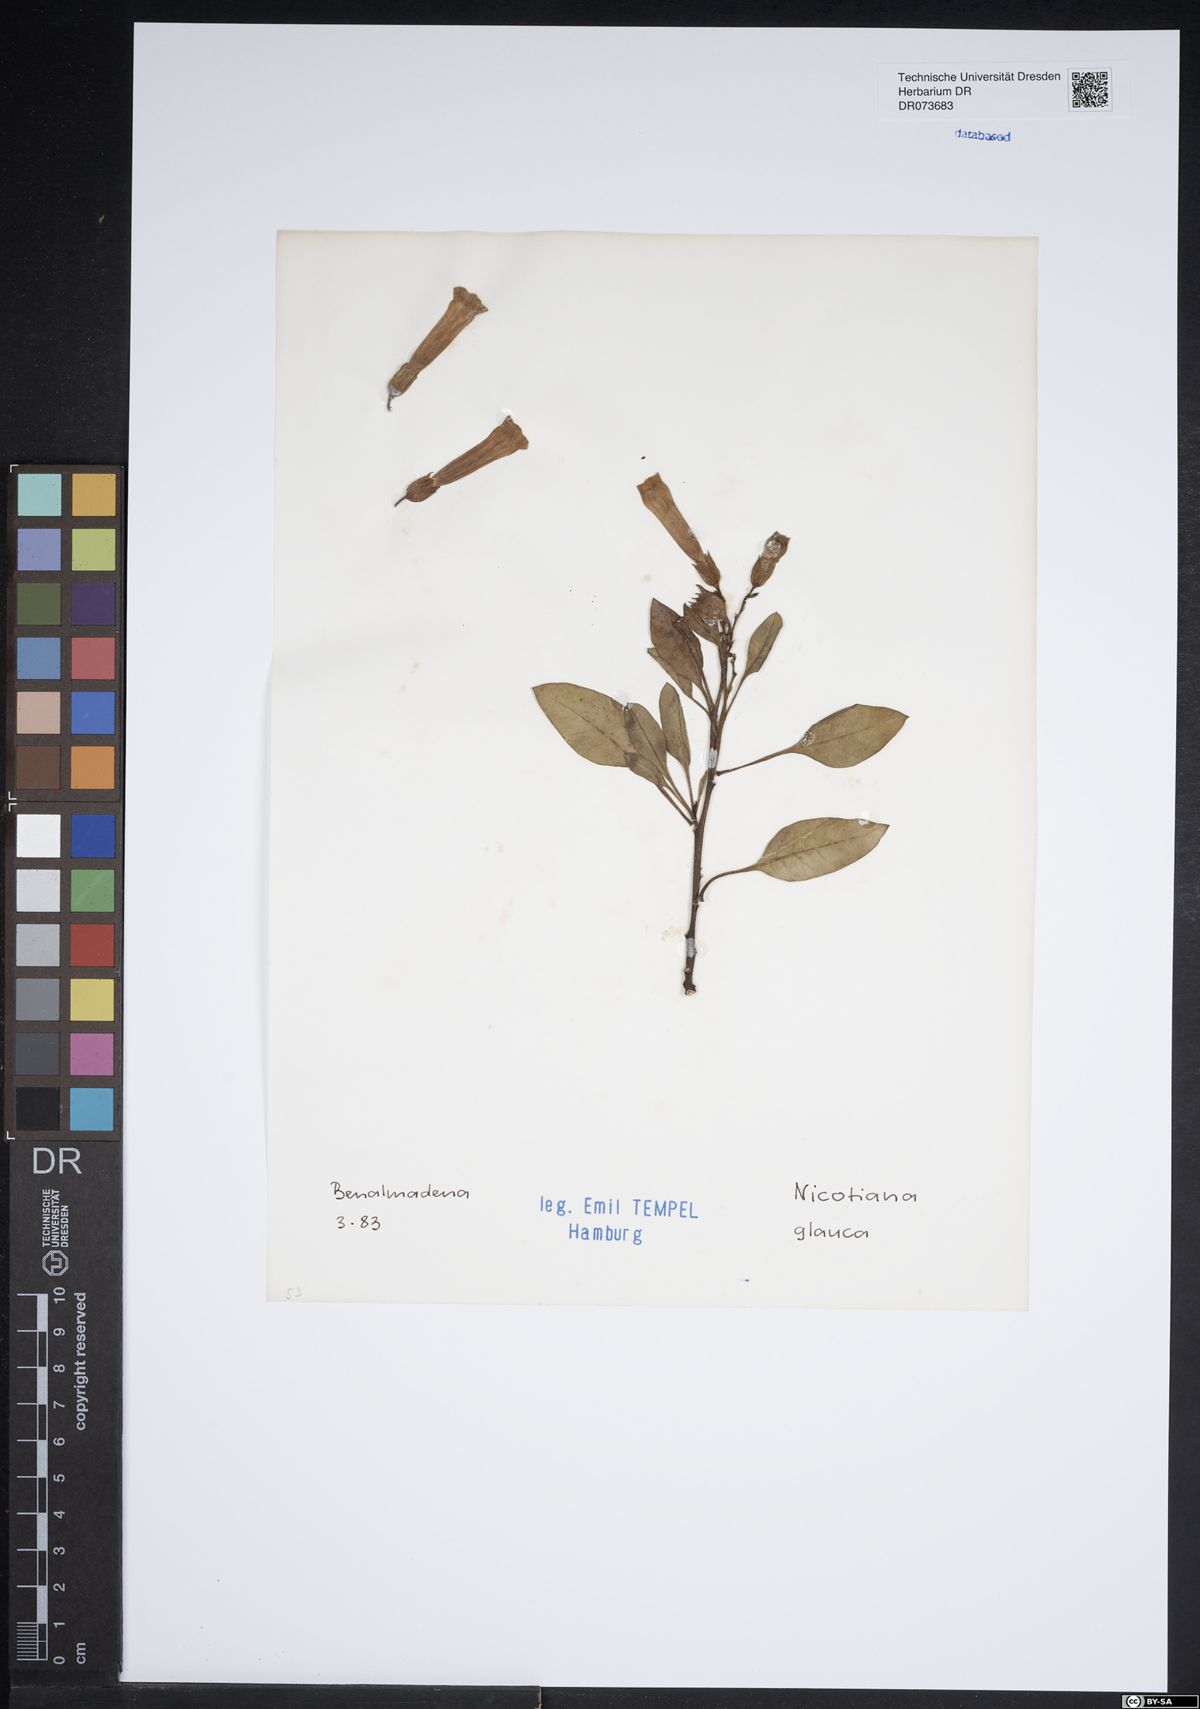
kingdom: Plantae
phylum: Tracheophyta
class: Magnoliopsida
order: Solanales
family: Solanaceae
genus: Nicotiana
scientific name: Nicotiana glauca
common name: Tree tobacco
